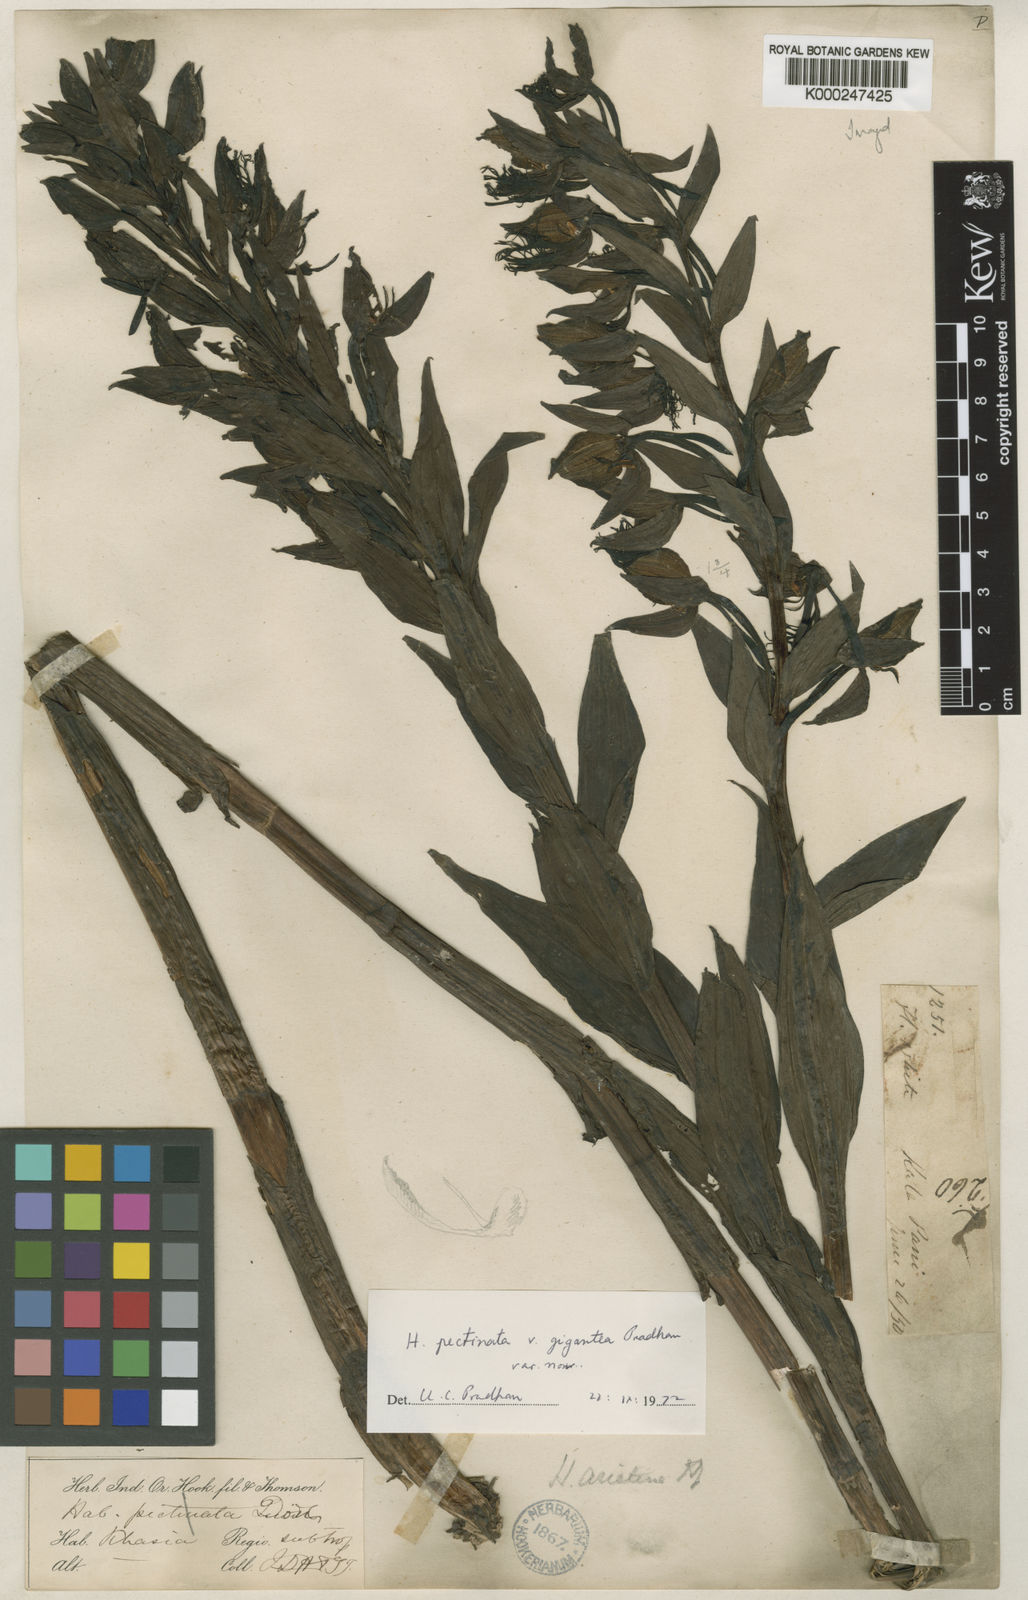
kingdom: Plantae
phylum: Tracheophyta
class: Liliopsida
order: Asparagales
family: Orchidaceae
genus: Habenaria
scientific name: Habenaria pectinata
